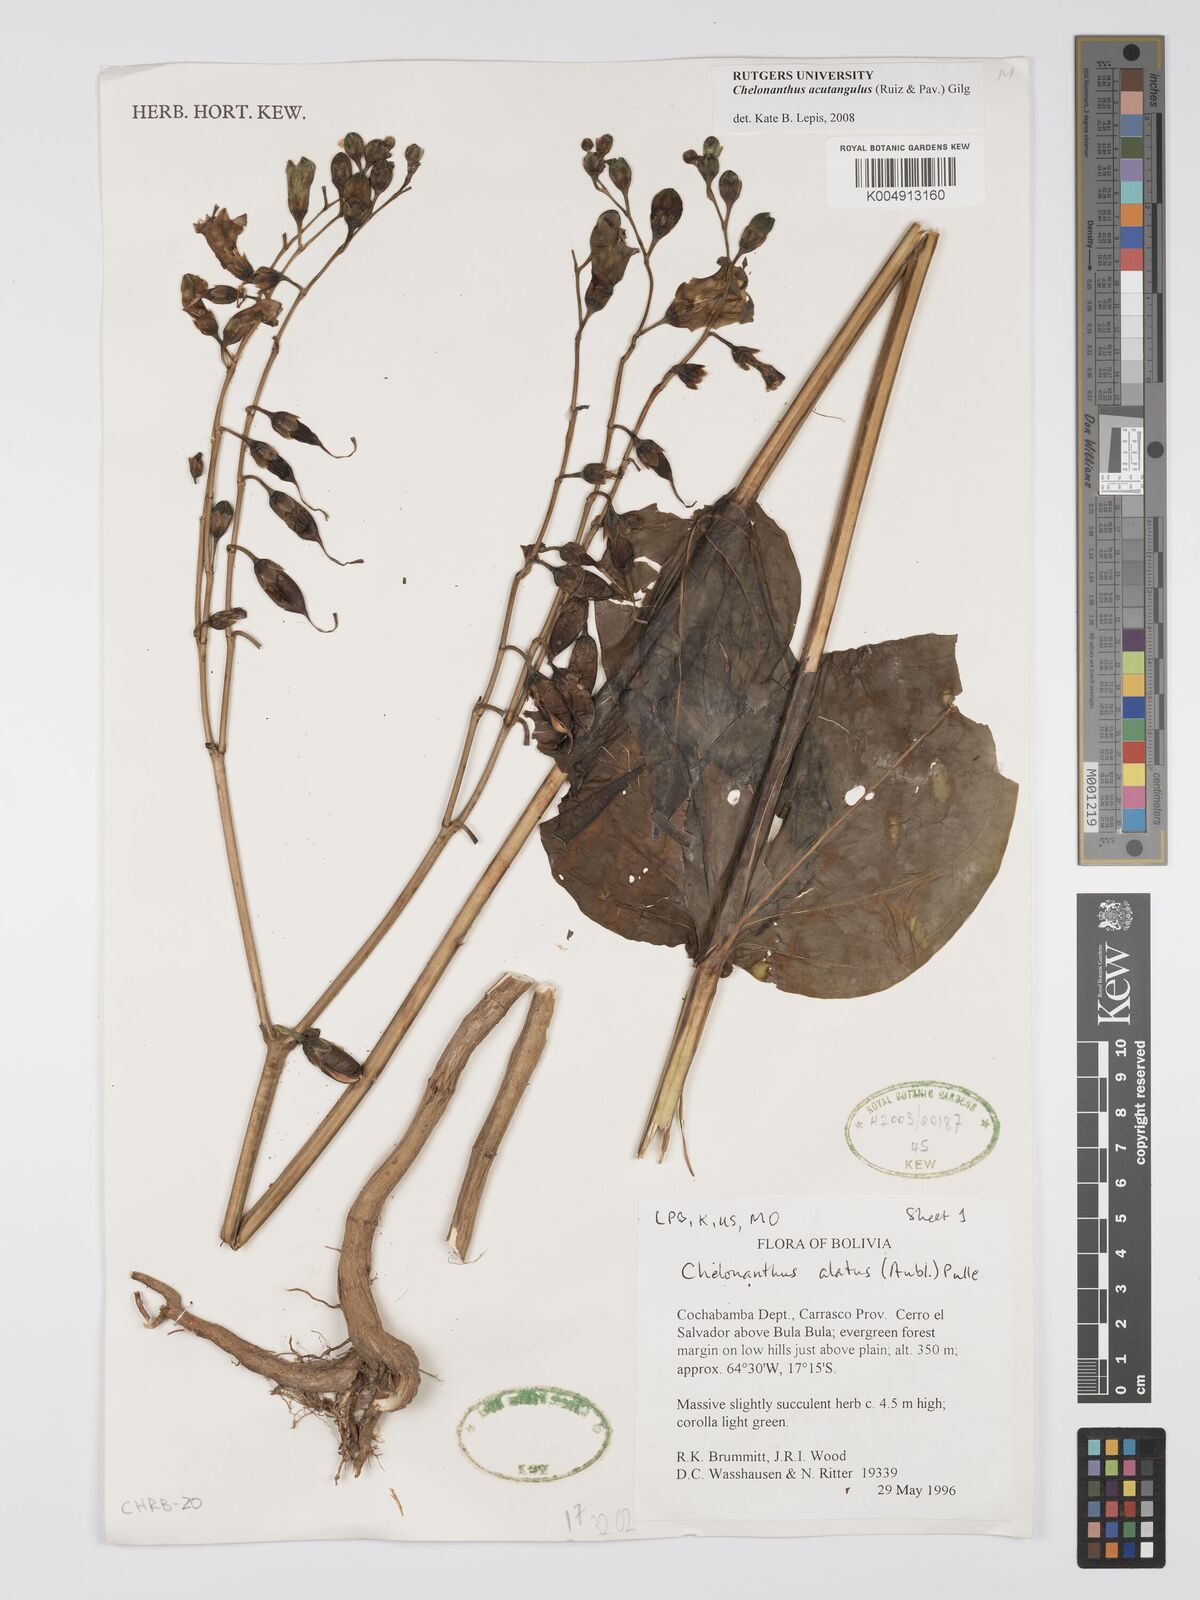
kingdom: Plantae
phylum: Tracheophyta
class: Magnoliopsida
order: Gentianales
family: Gentianaceae
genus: Chelonanthus
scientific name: Chelonanthus alatus
